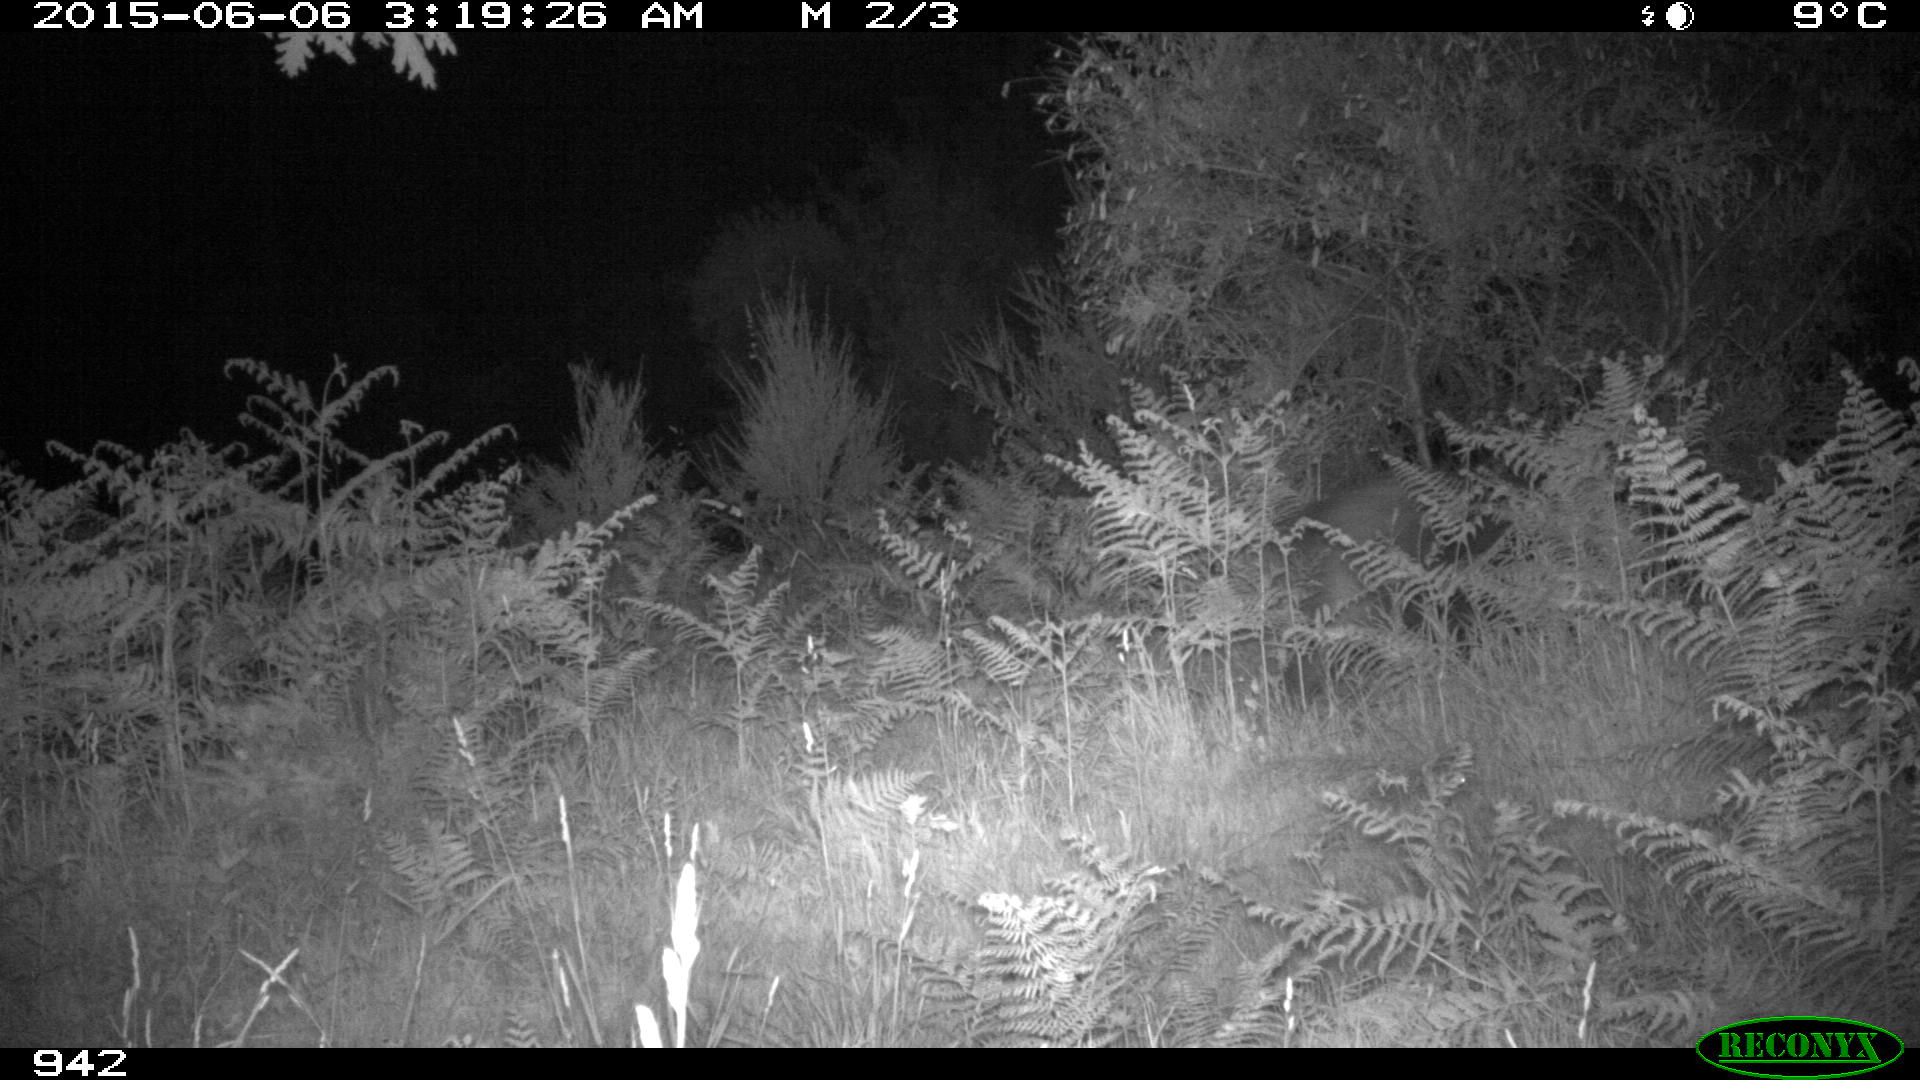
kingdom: Animalia
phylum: Chordata
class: Mammalia
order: Artiodactyla
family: Suidae
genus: Sus
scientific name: Sus scrofa
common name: Wild boar
